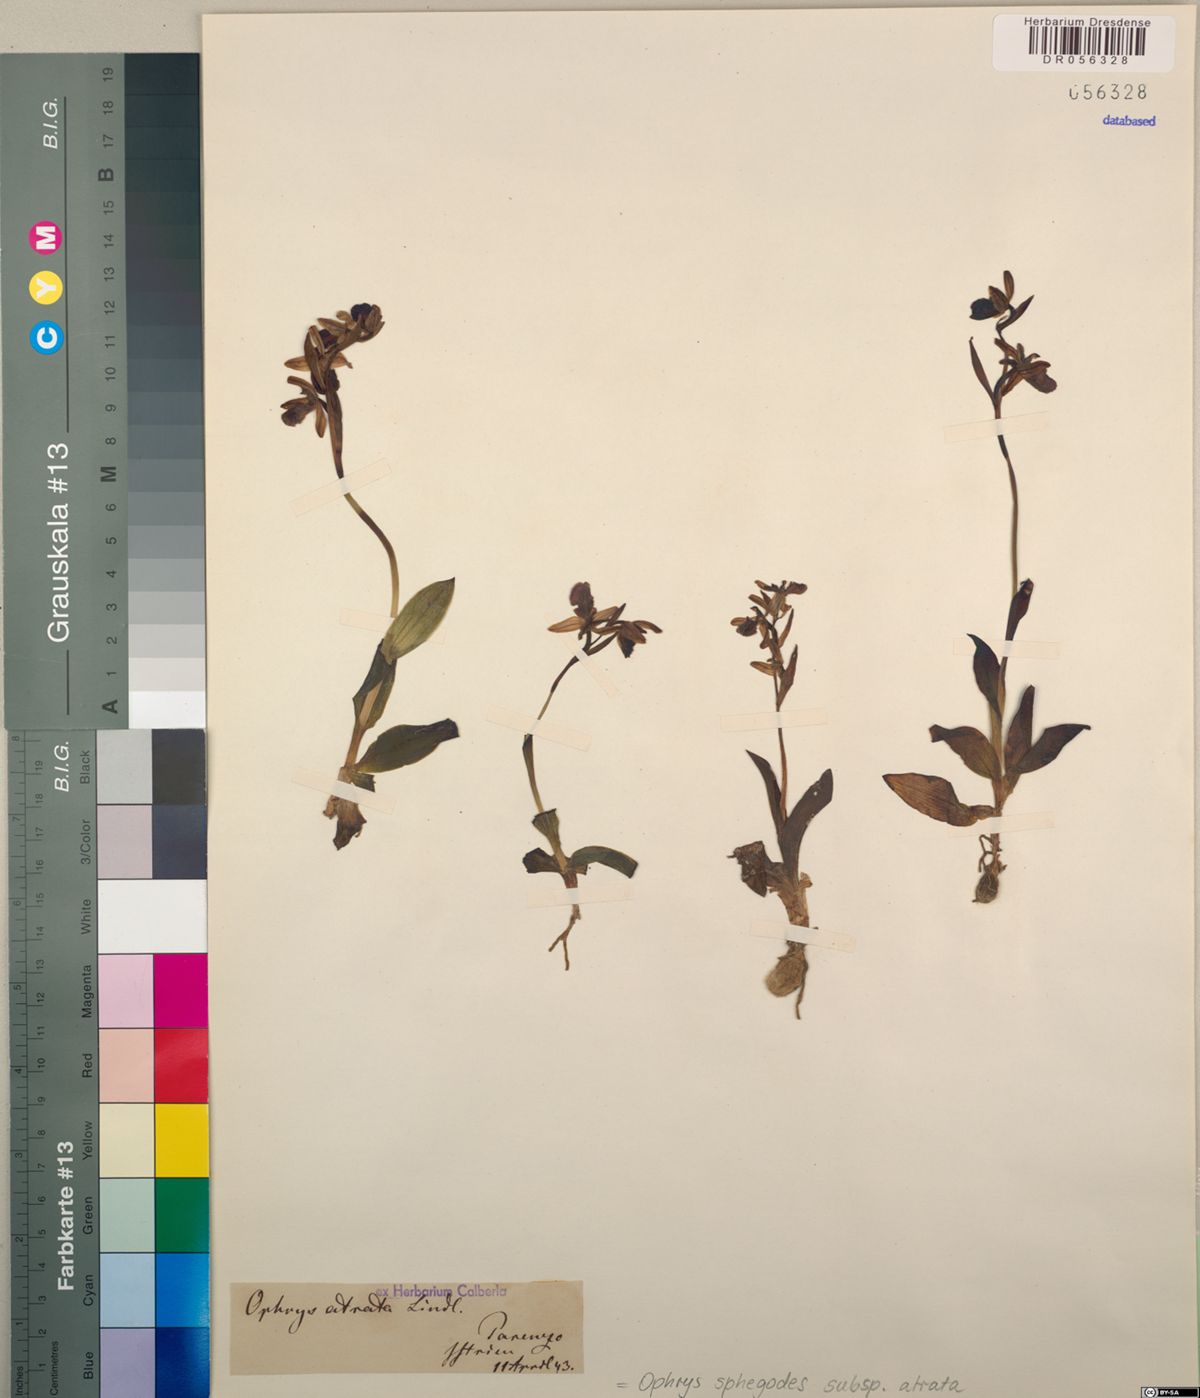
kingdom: Plantae
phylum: Tracheophyta
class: Liliopsida
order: Asparagales
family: Orchidaceae
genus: Ophrys
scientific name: Ophrys sphegodes
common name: Early spider-orchid
